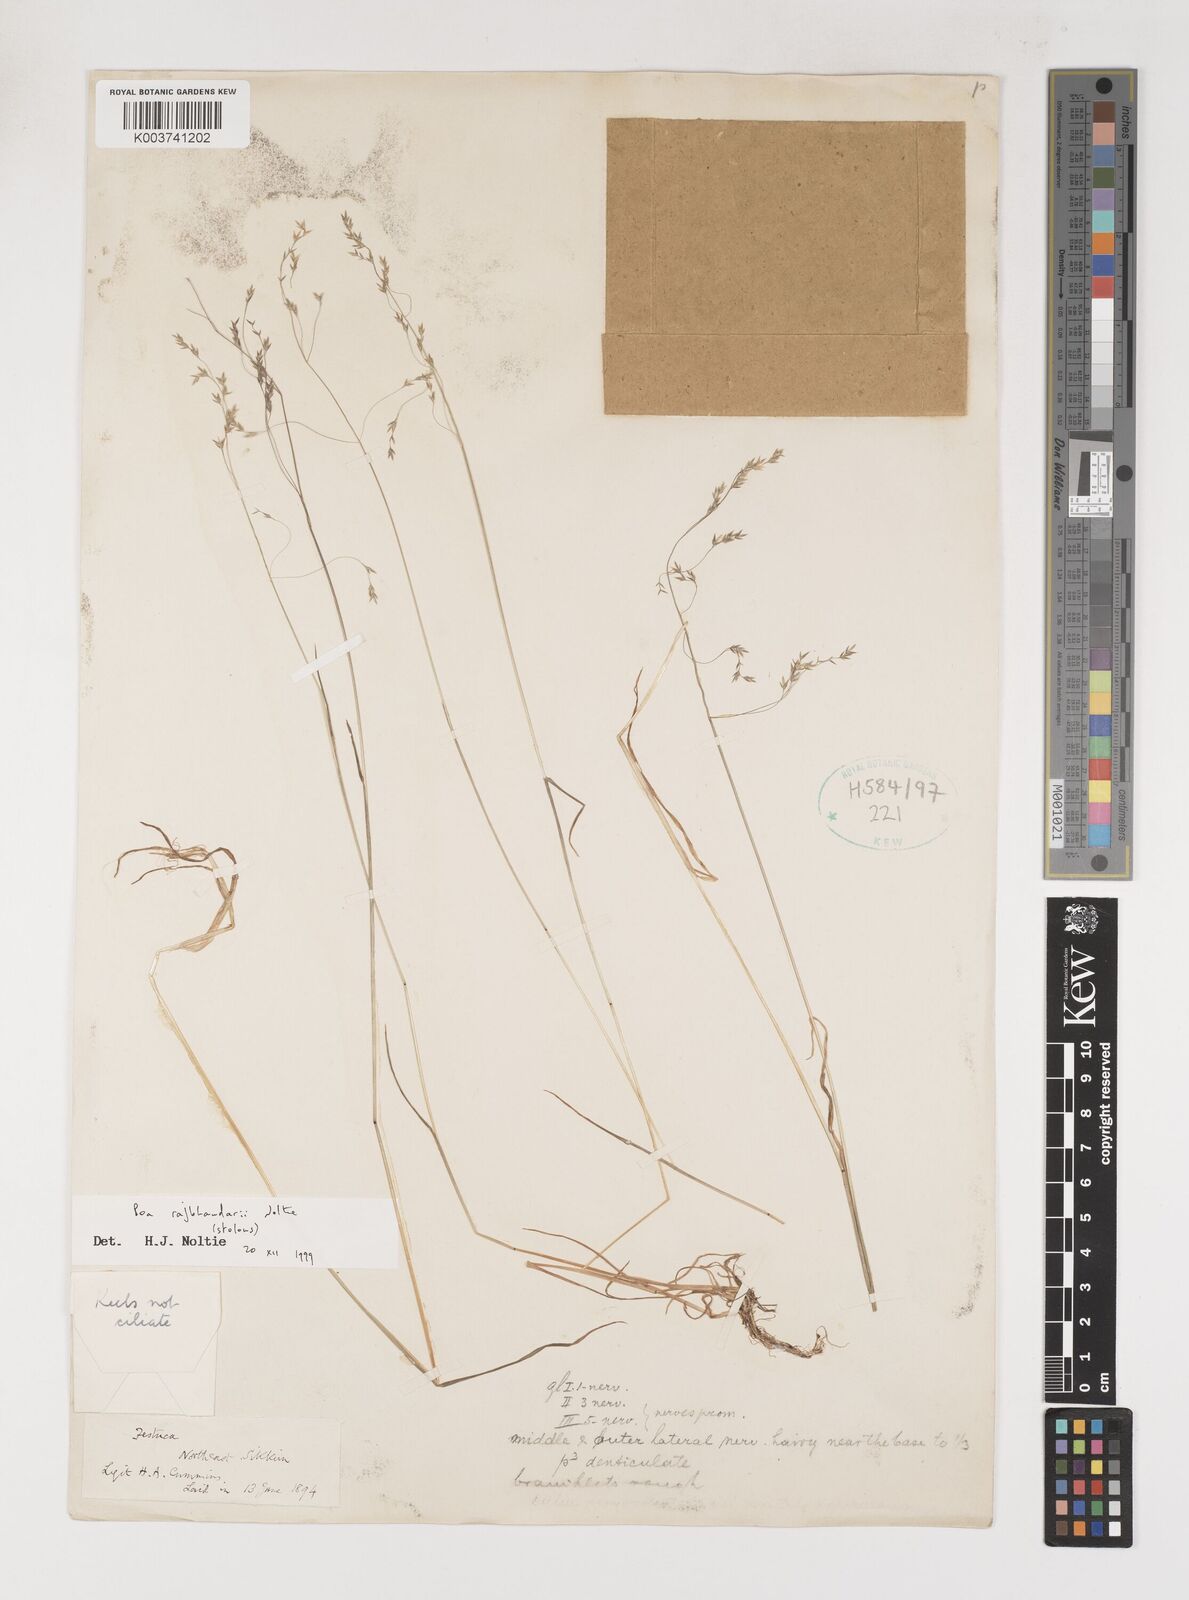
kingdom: Plantae
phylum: Tracheophyta
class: Liliopsida
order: Poales
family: Poaceae
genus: Poa
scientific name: Poa rajbhandarii
